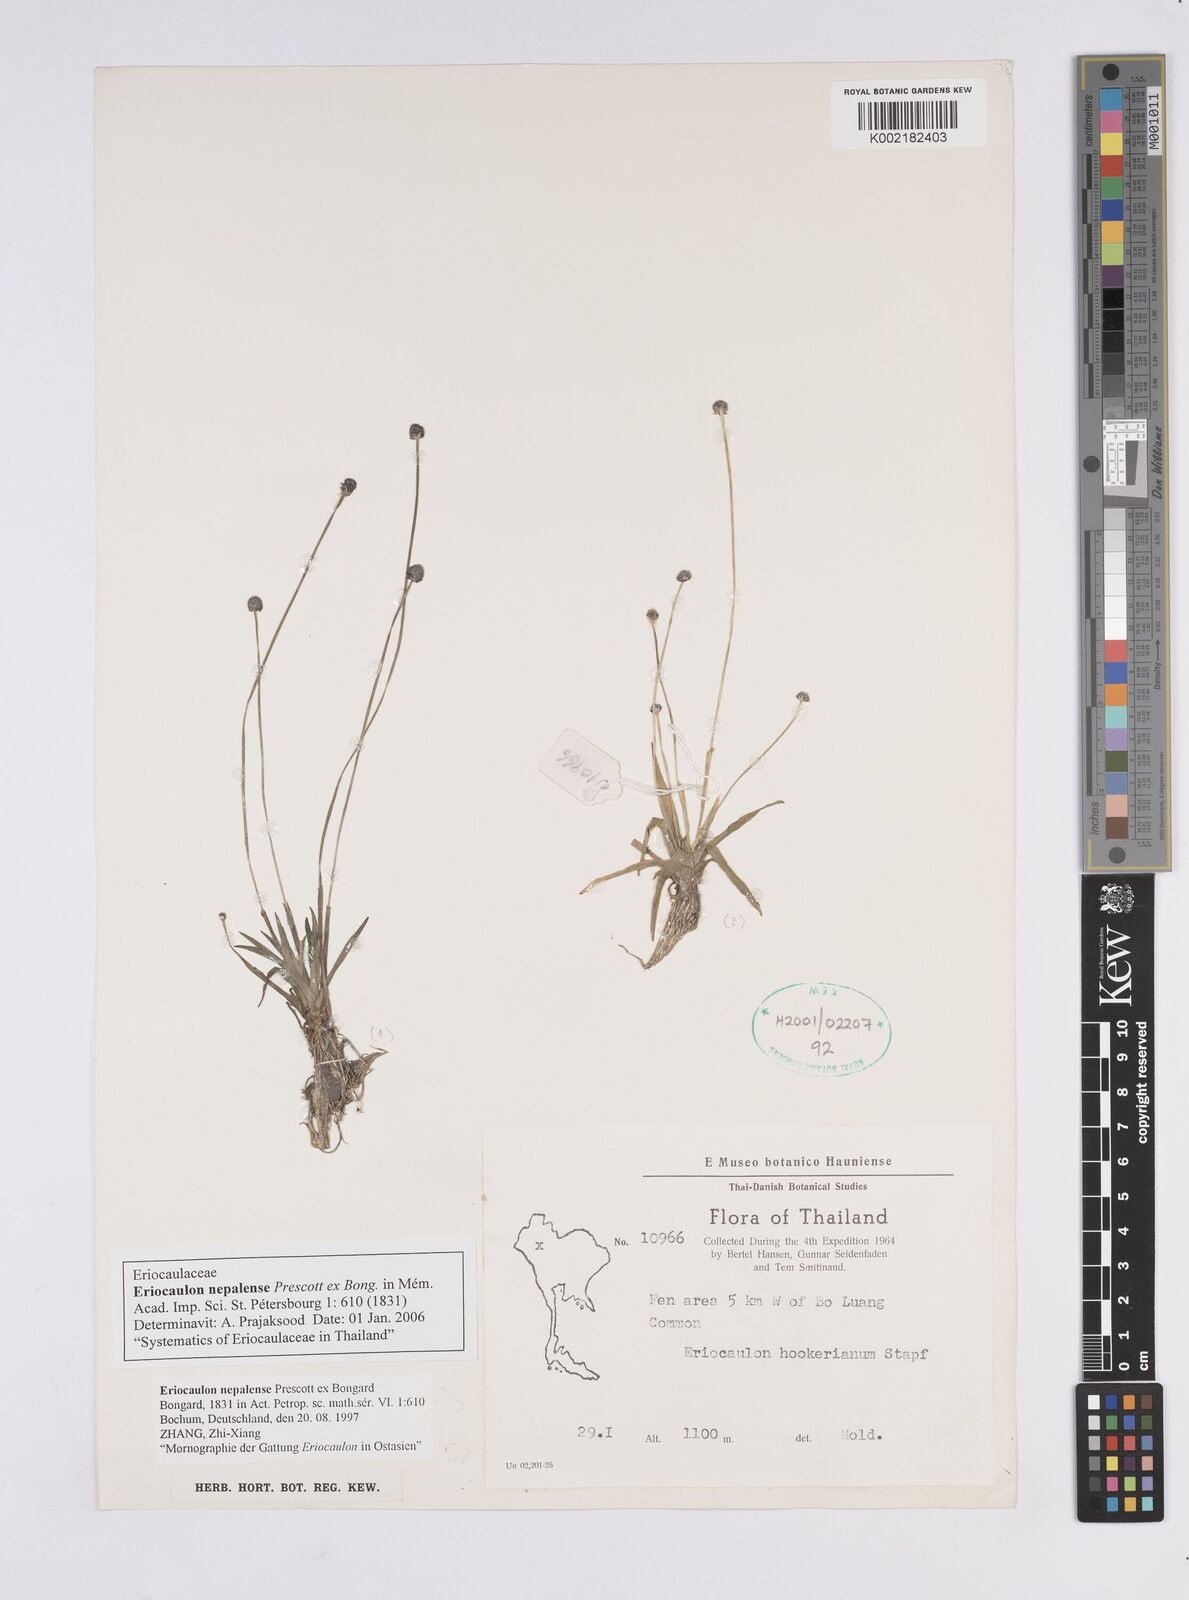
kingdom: Plantae
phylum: Tracheophyta
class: Liliopsida
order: Poales
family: Eriocaulaceae
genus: Eriocaulon
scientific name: Eriocaulon nepalense
